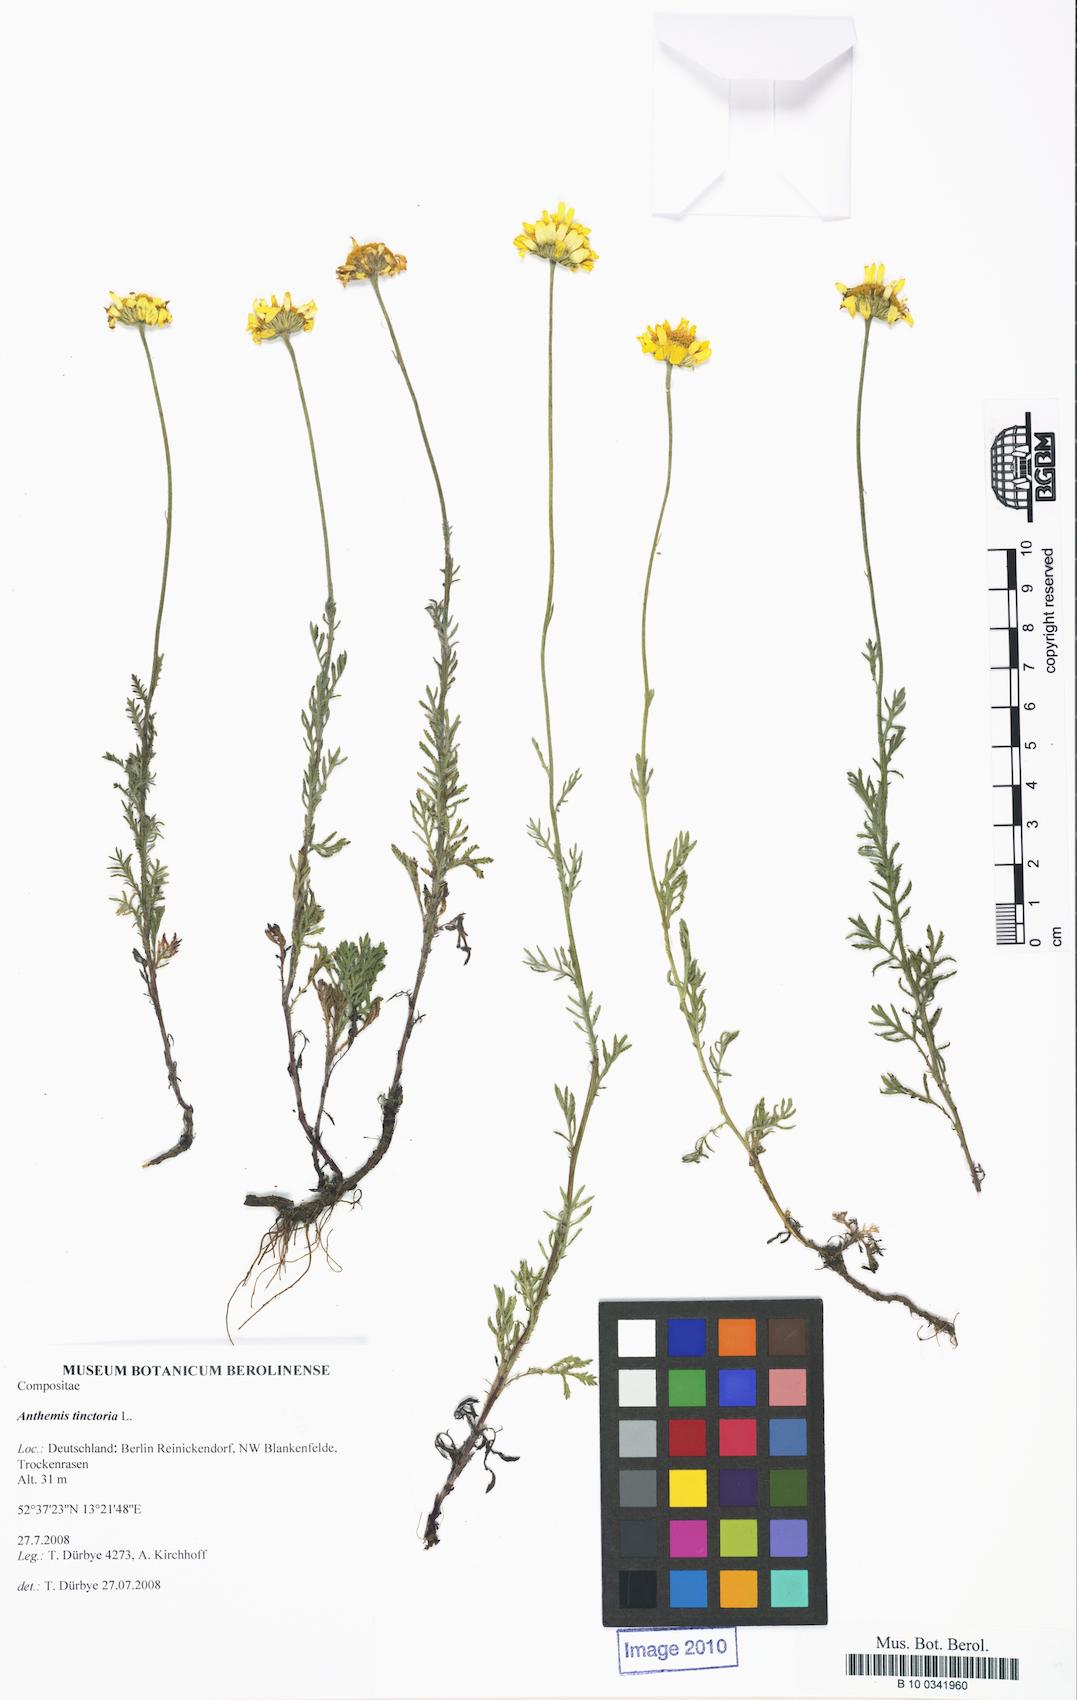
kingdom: Plantae
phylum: Tracheophyta
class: Magnoliopsida
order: Asterales
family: Asteraceae
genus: Cota
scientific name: Cota tinctoria
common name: Golden chamomile
